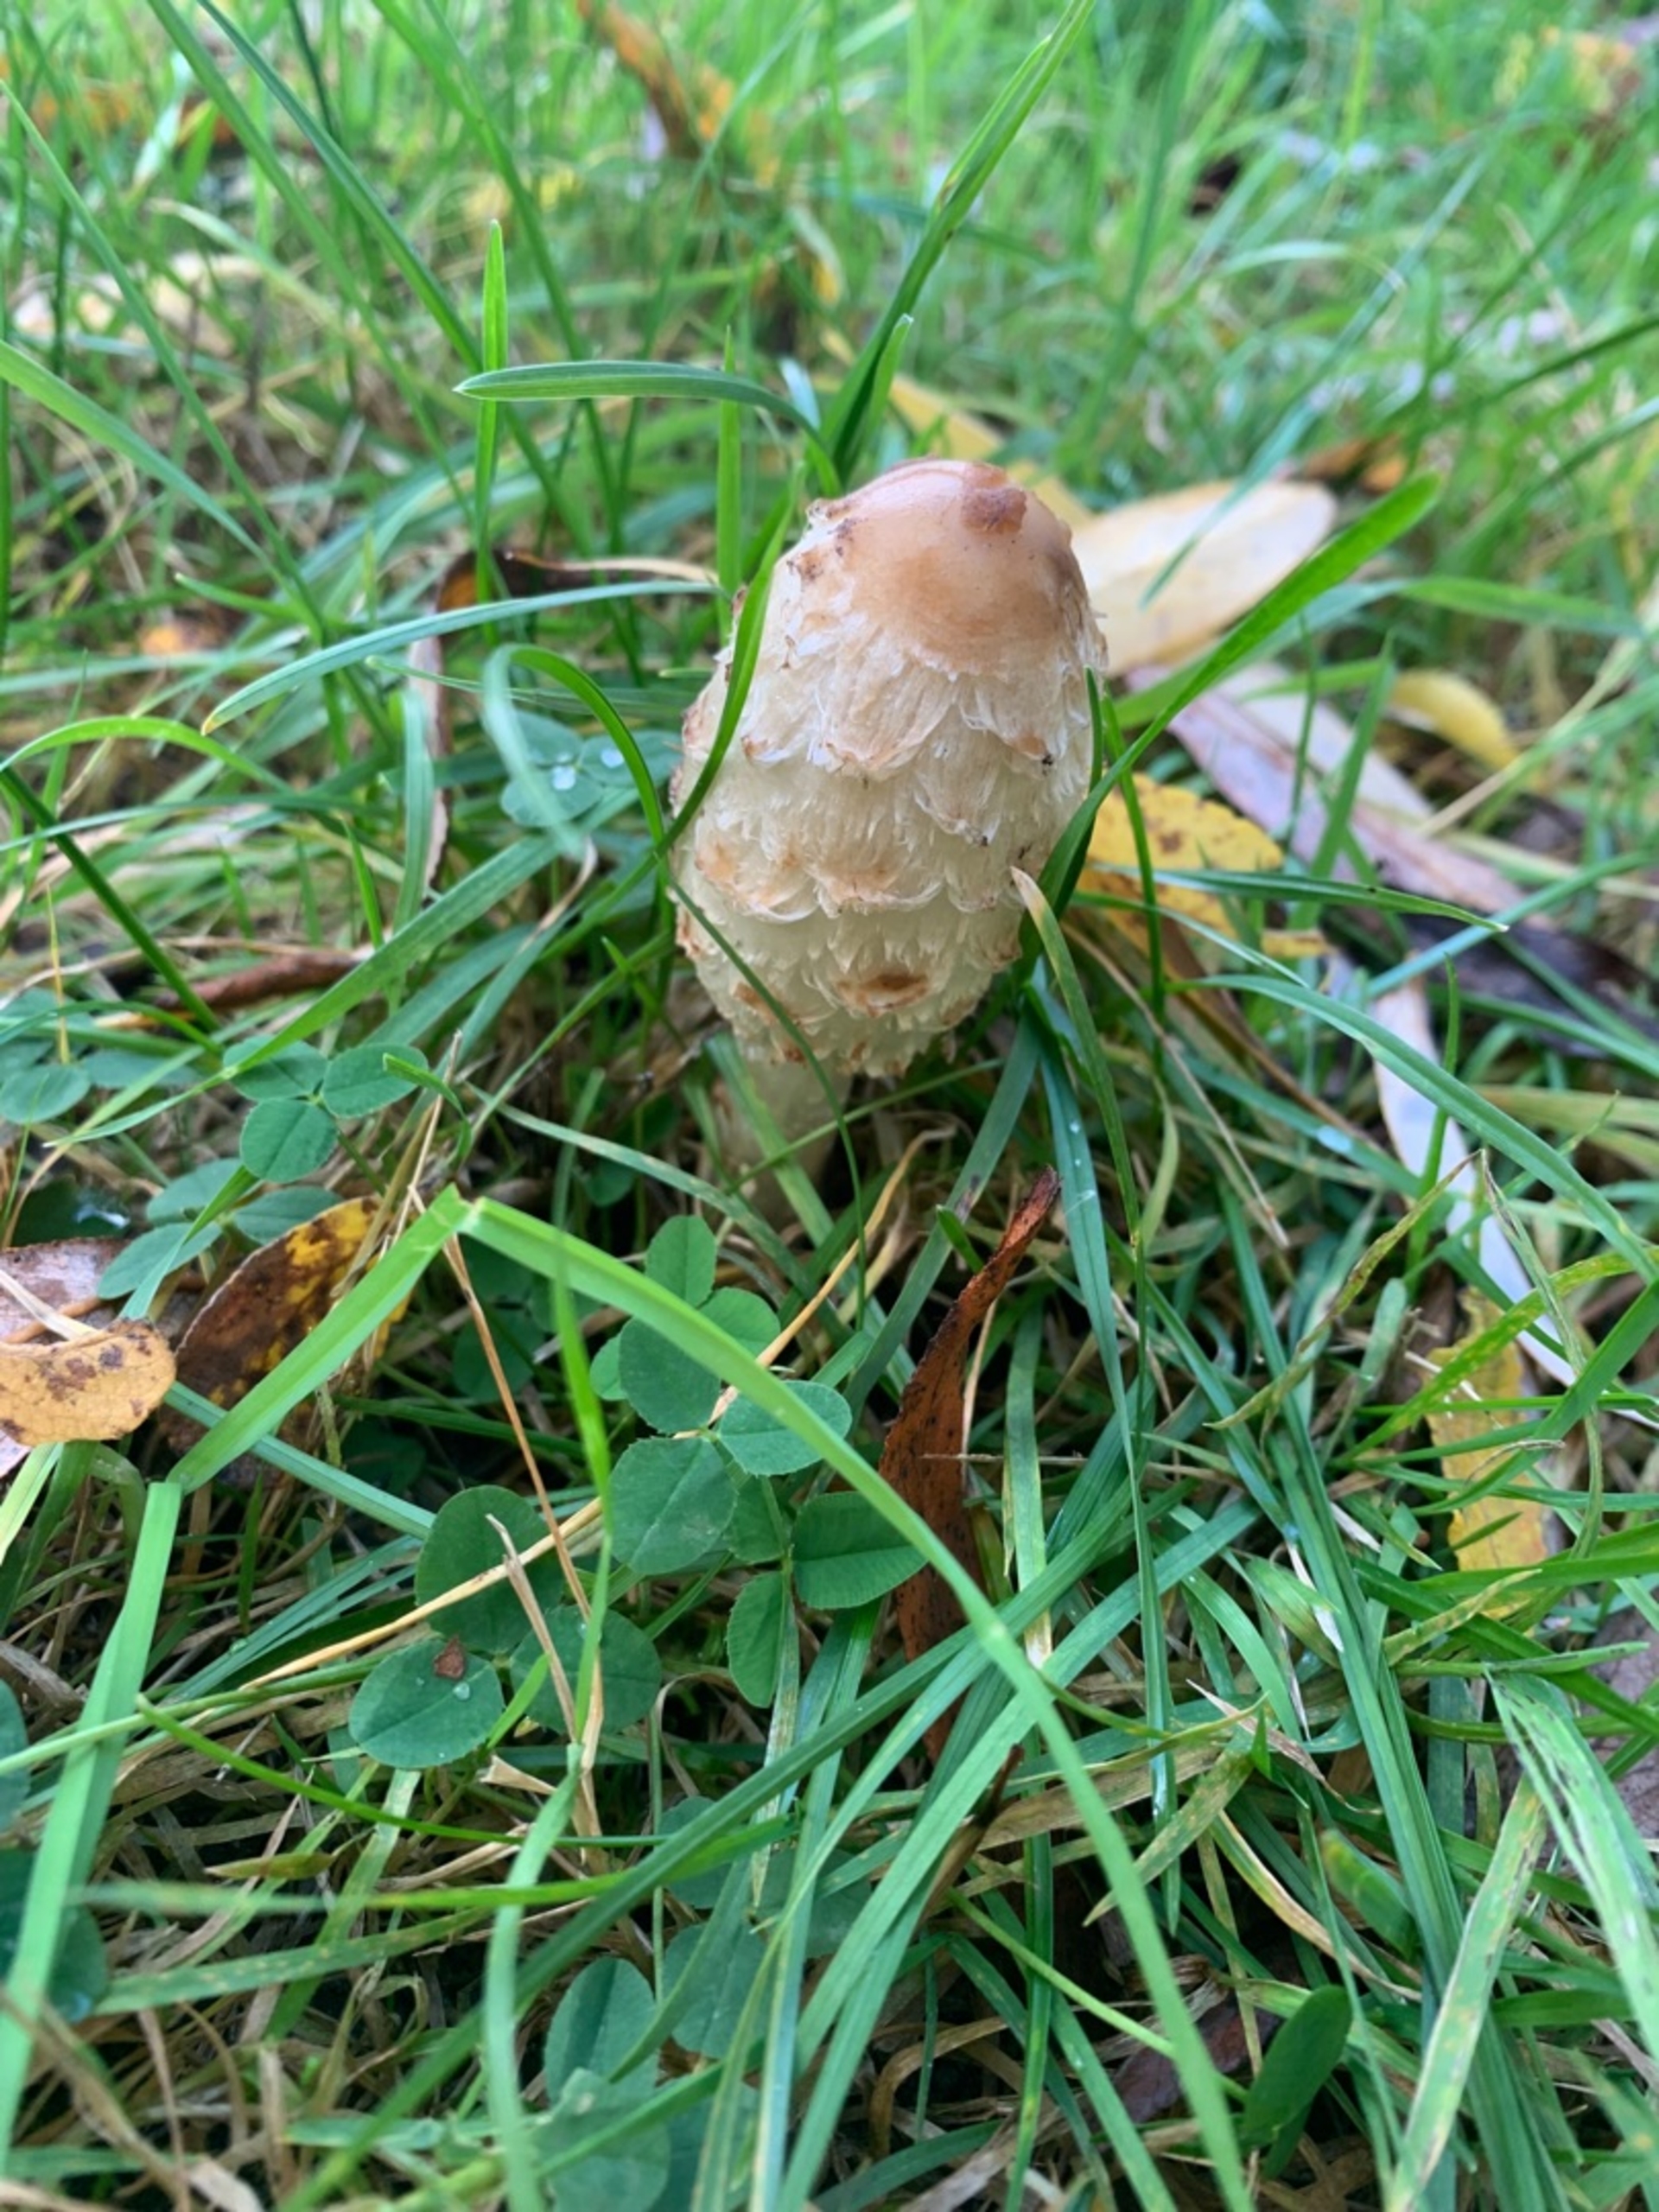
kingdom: Fungi
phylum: Basidiomycota
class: Agaricomycetes
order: Agaricales
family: Agaricaceae
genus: Coprinus
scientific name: Coprinus comatus
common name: Stor parykhat
